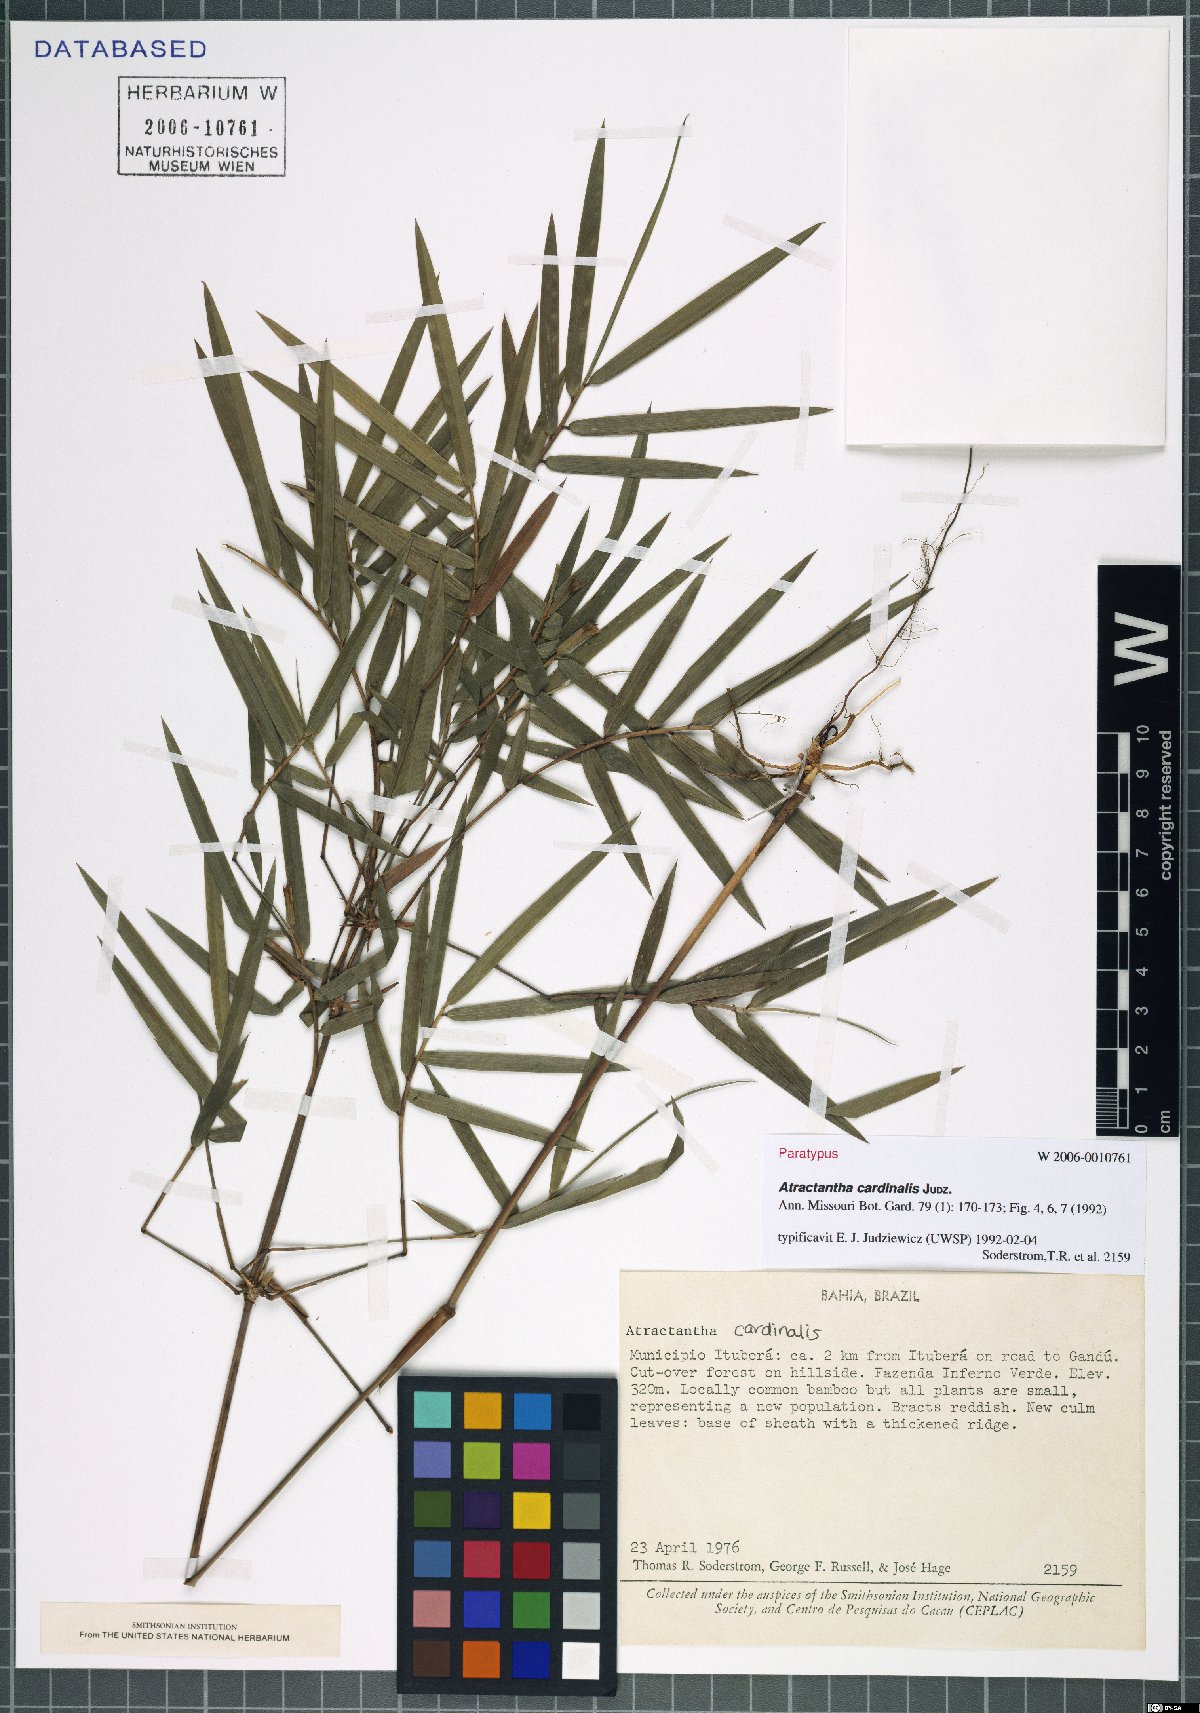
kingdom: Plantae
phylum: Tracheophyta
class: Liliopsida
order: Poales
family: Poaceae
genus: Atractantha
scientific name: Atractantha cardinalis
